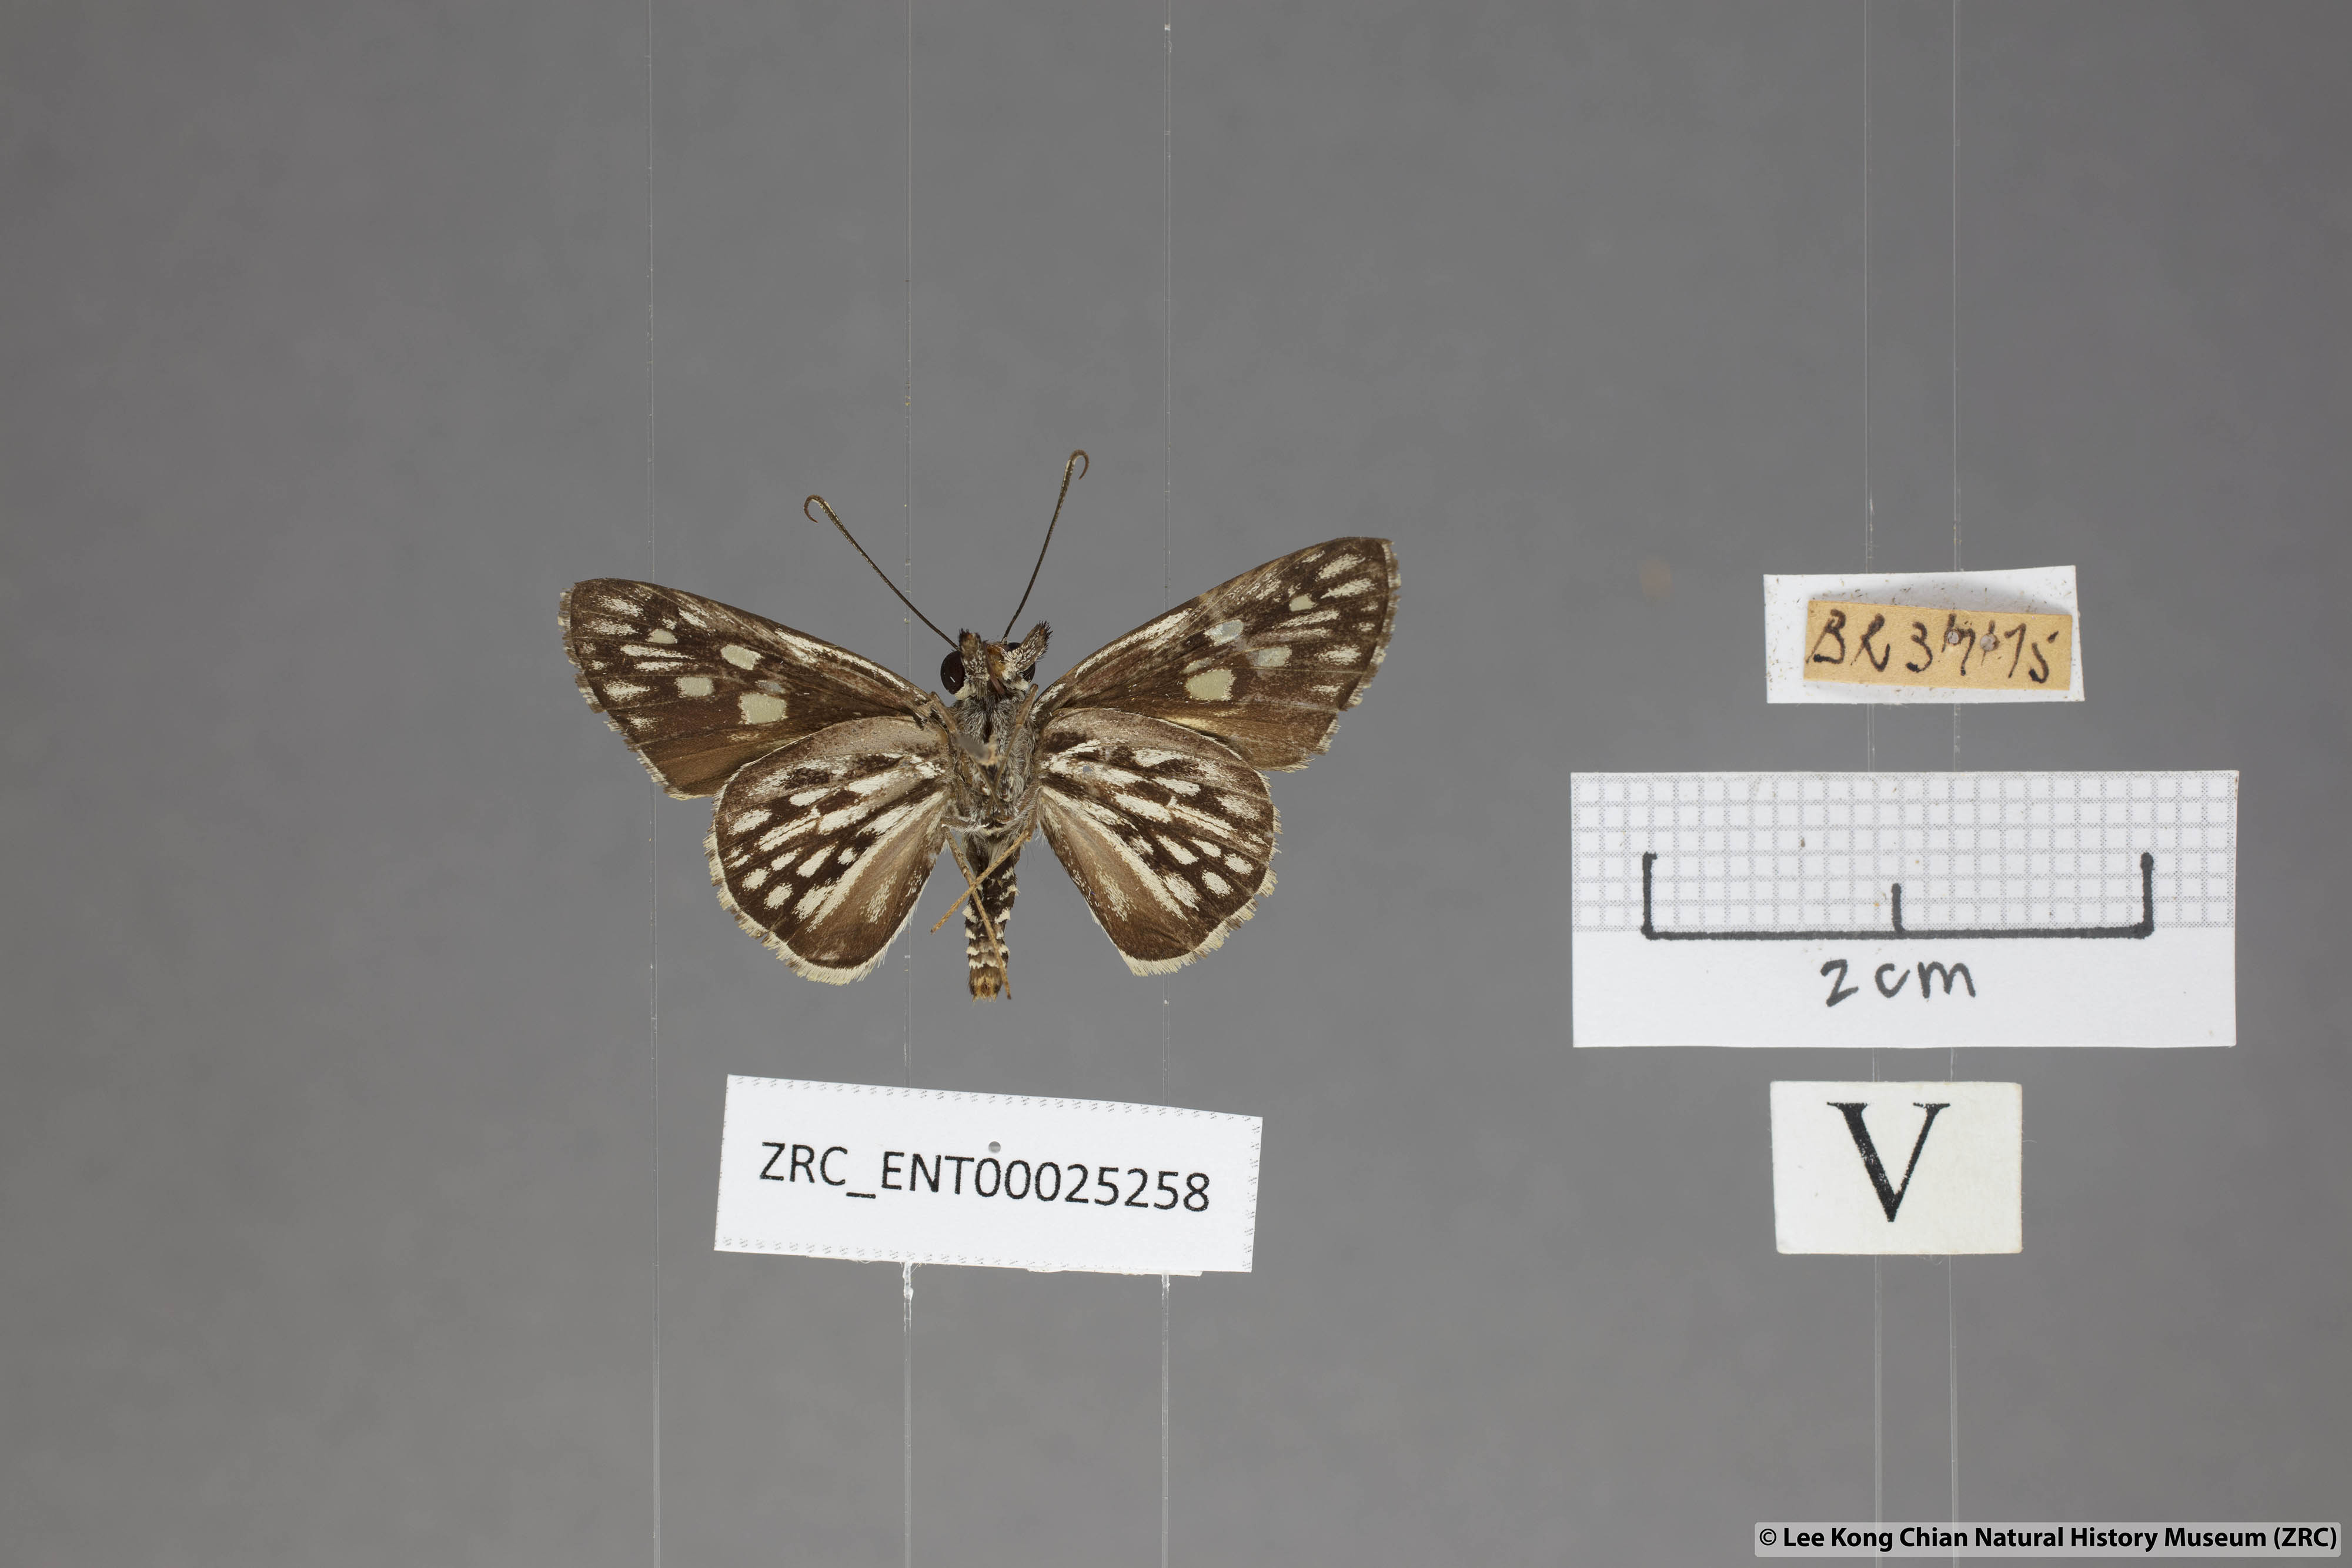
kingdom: Animalia
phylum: Arthropoda
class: Insecta
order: Lepidoptera
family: Hesperiidae
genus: Plastingia
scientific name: Plastingia naga
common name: Chequered lancer
